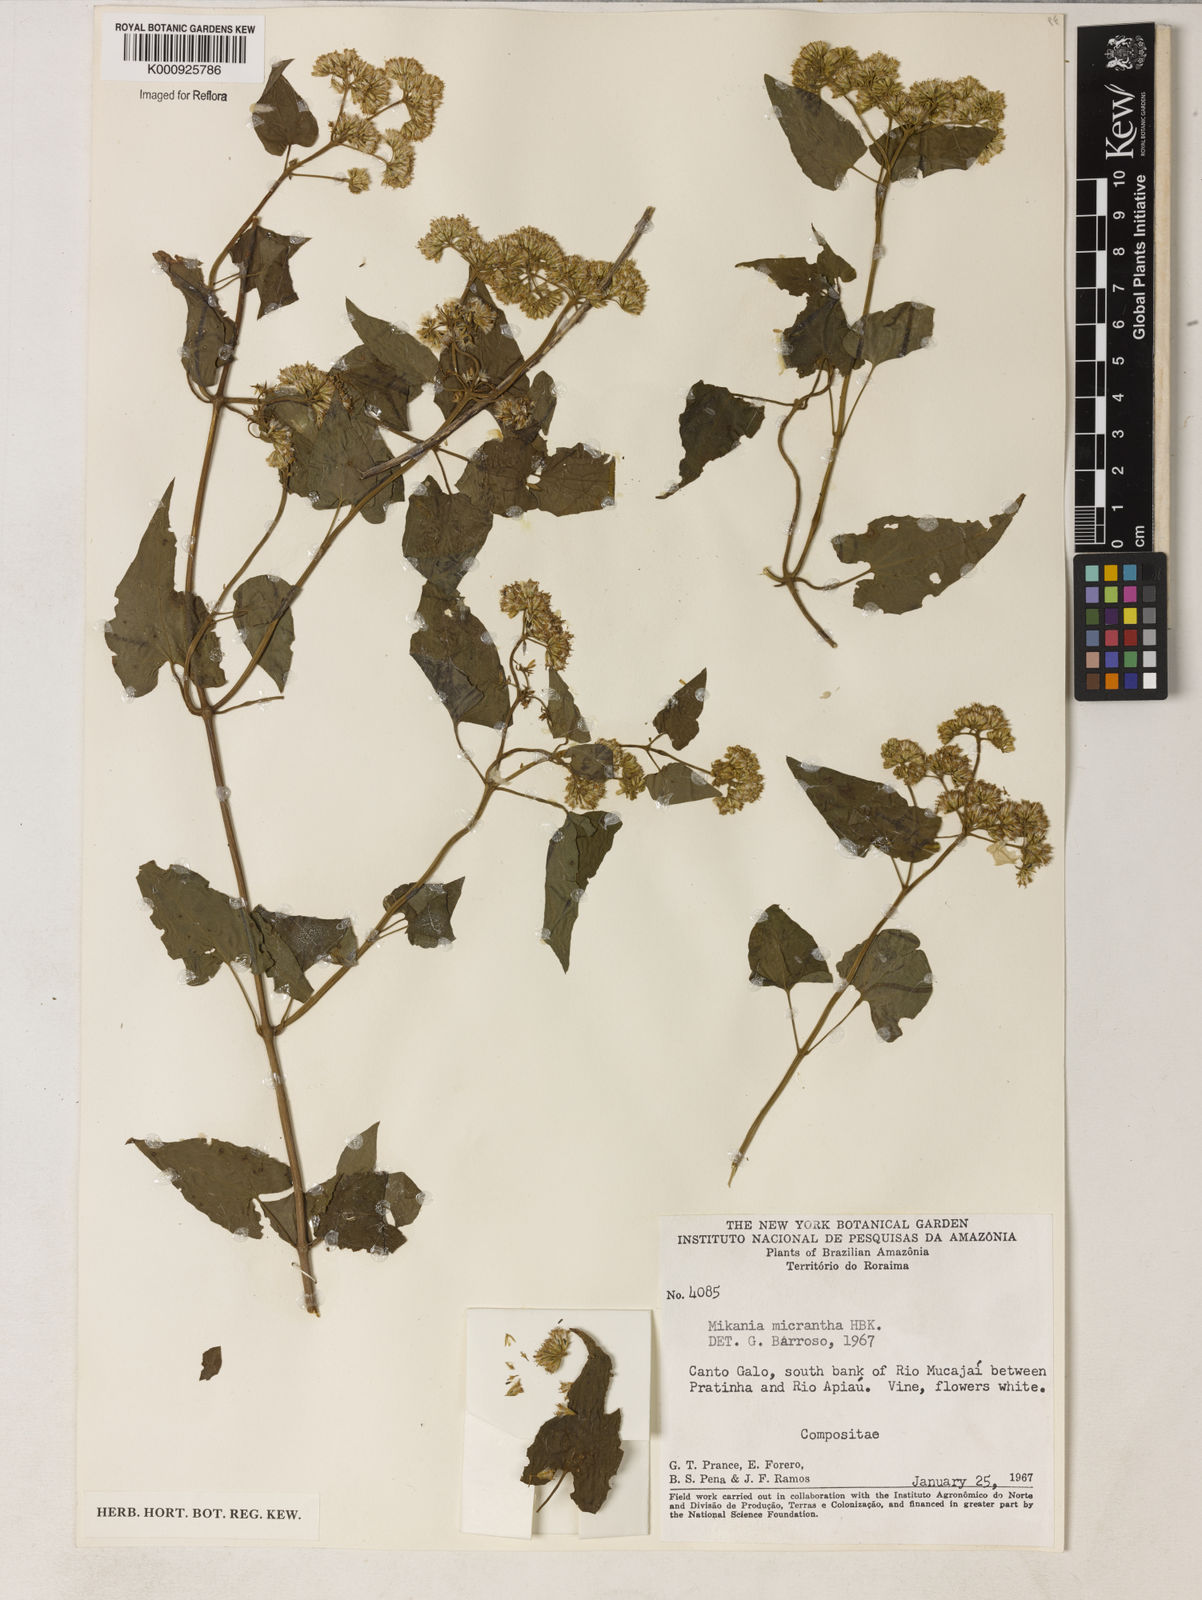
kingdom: Plantae
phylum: Tracheophyta
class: Magnoliopsida
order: Asterales
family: Asteraceae
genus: Mikania
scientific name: Mikania
